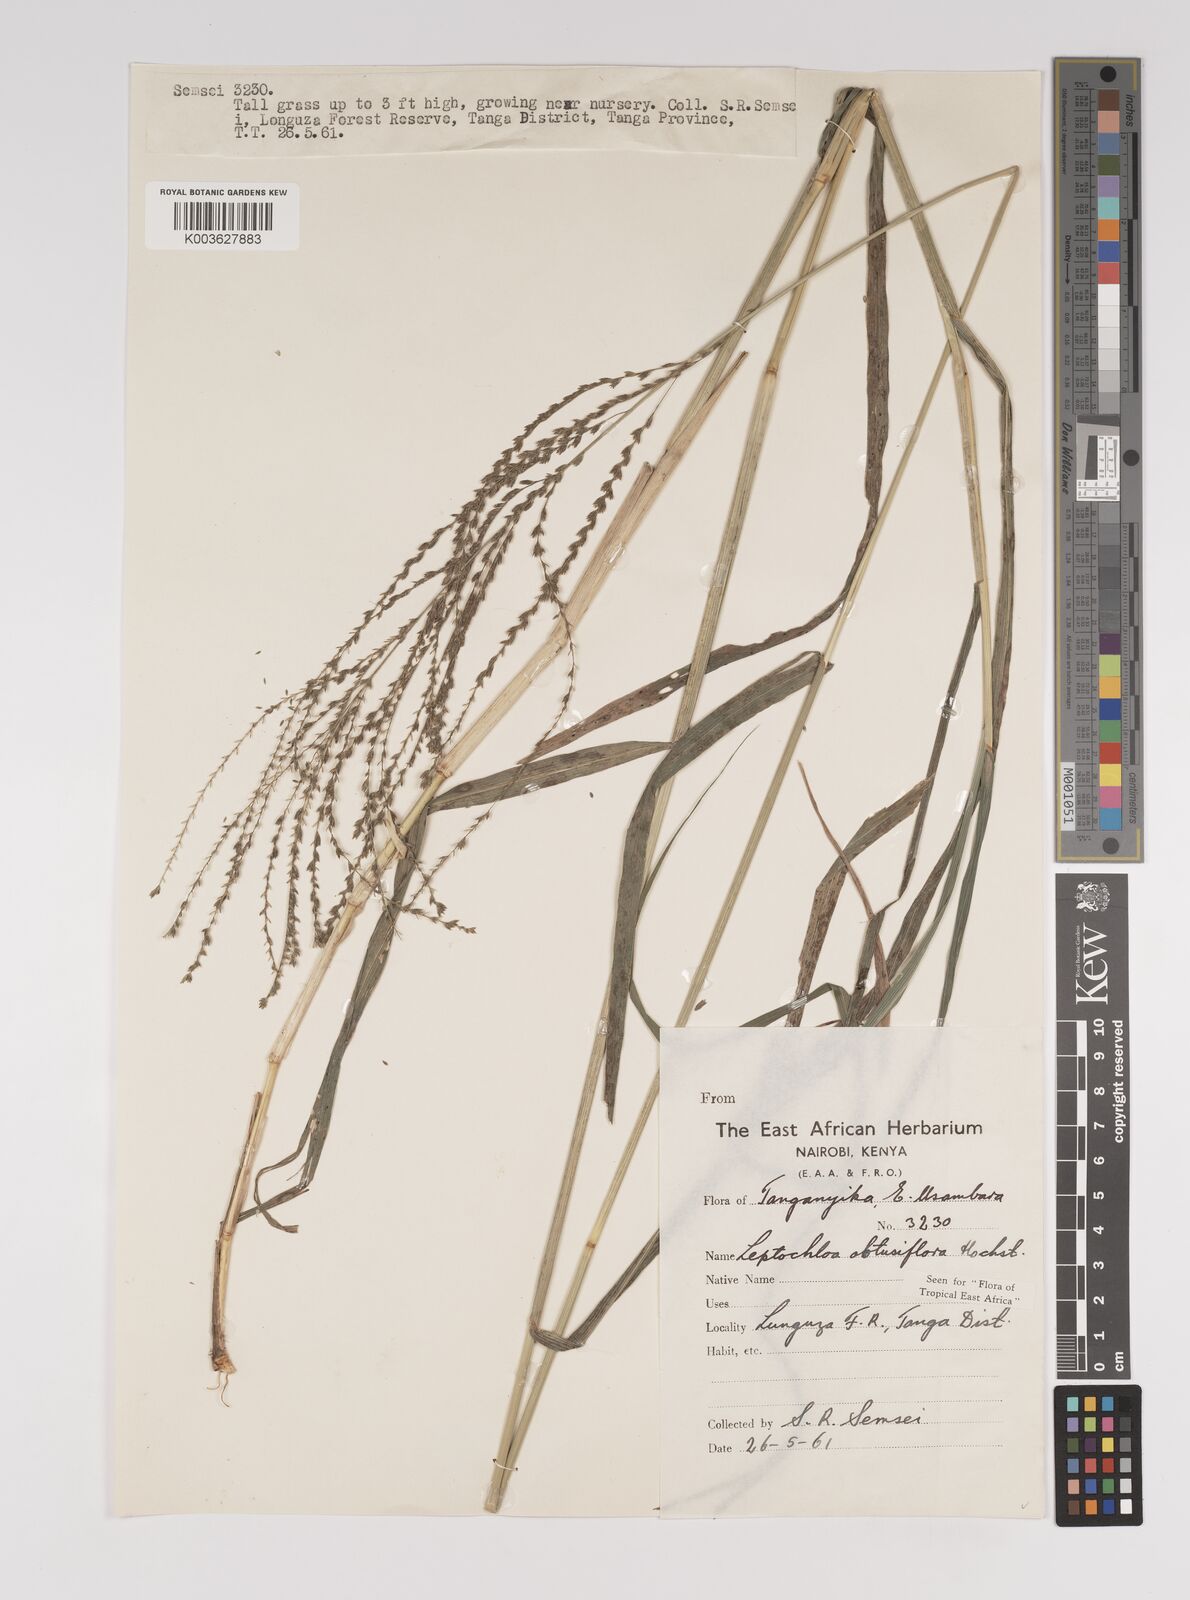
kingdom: Plantae
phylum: Tracheophyta
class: Liliopsida
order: Poales
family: Poaceae
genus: Disakisperma
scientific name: Disakisperma obtusiflorum
